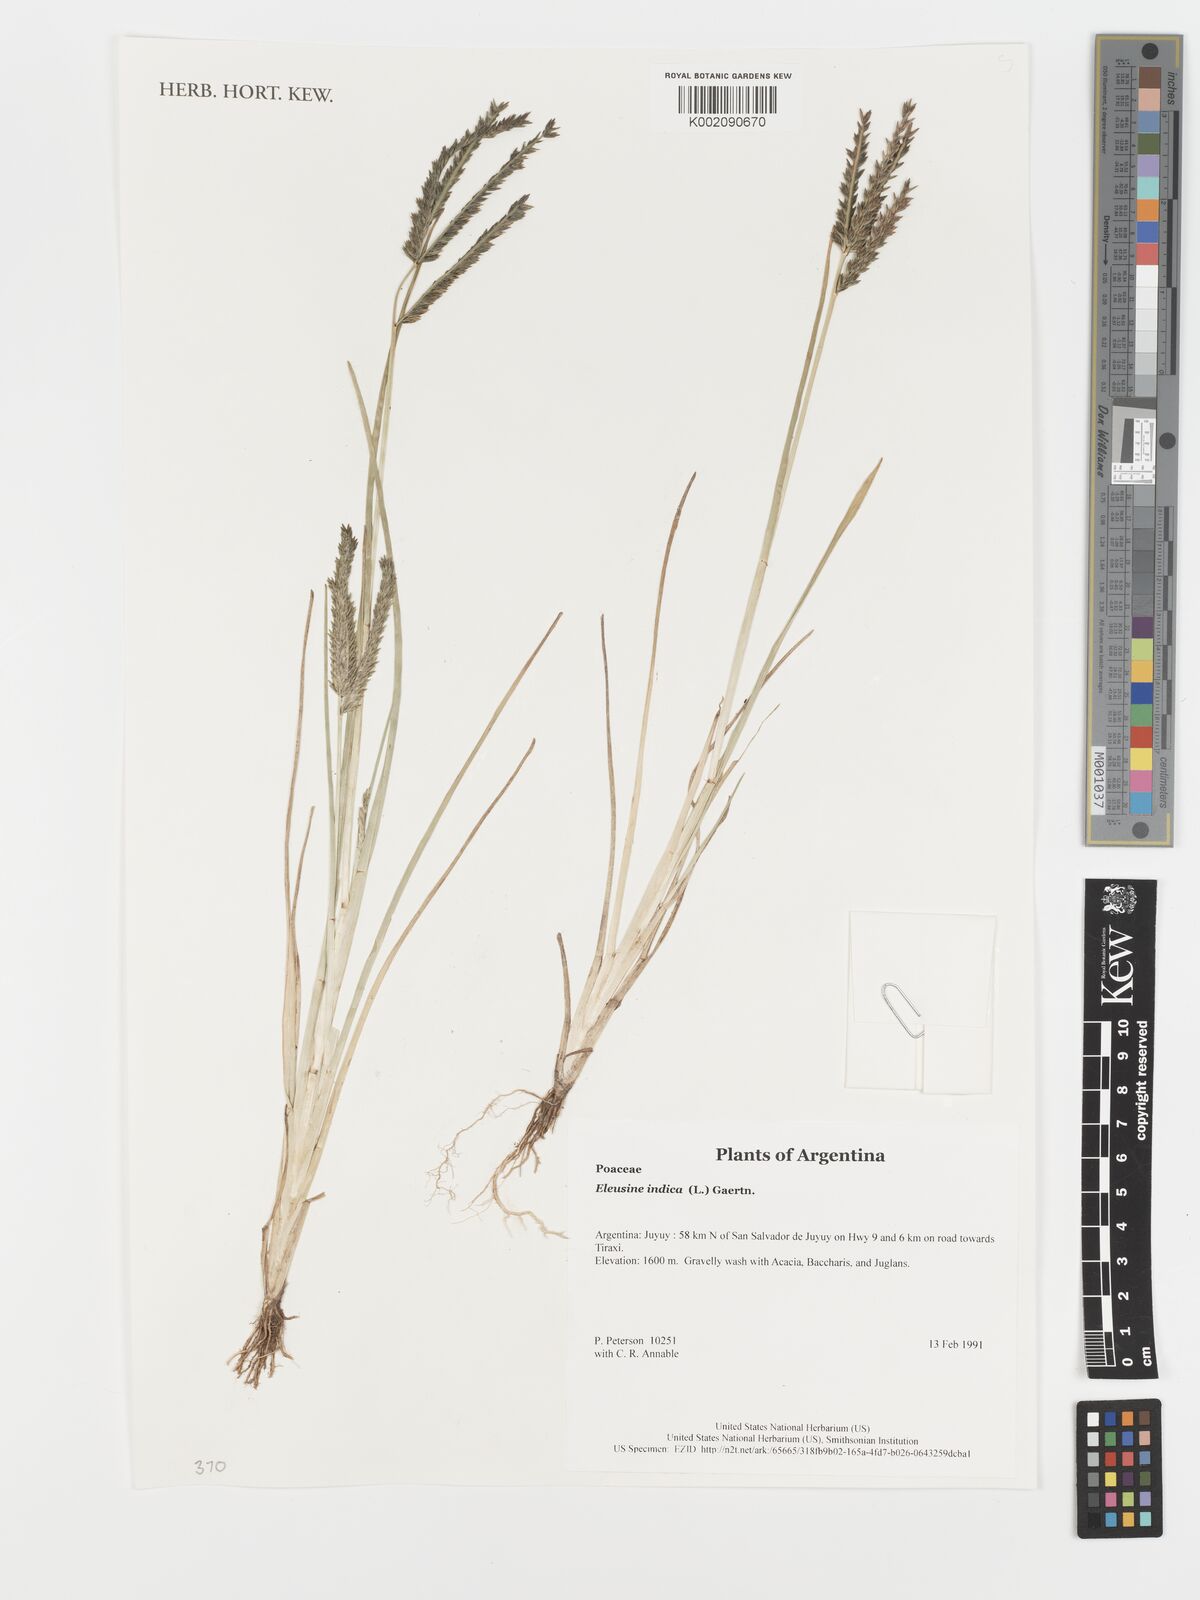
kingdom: Plantae
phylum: Tracheophyta
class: Liliopsida
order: Poales
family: Poaceae
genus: Eleusine
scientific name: Eleusine indica
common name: Yard-grass
